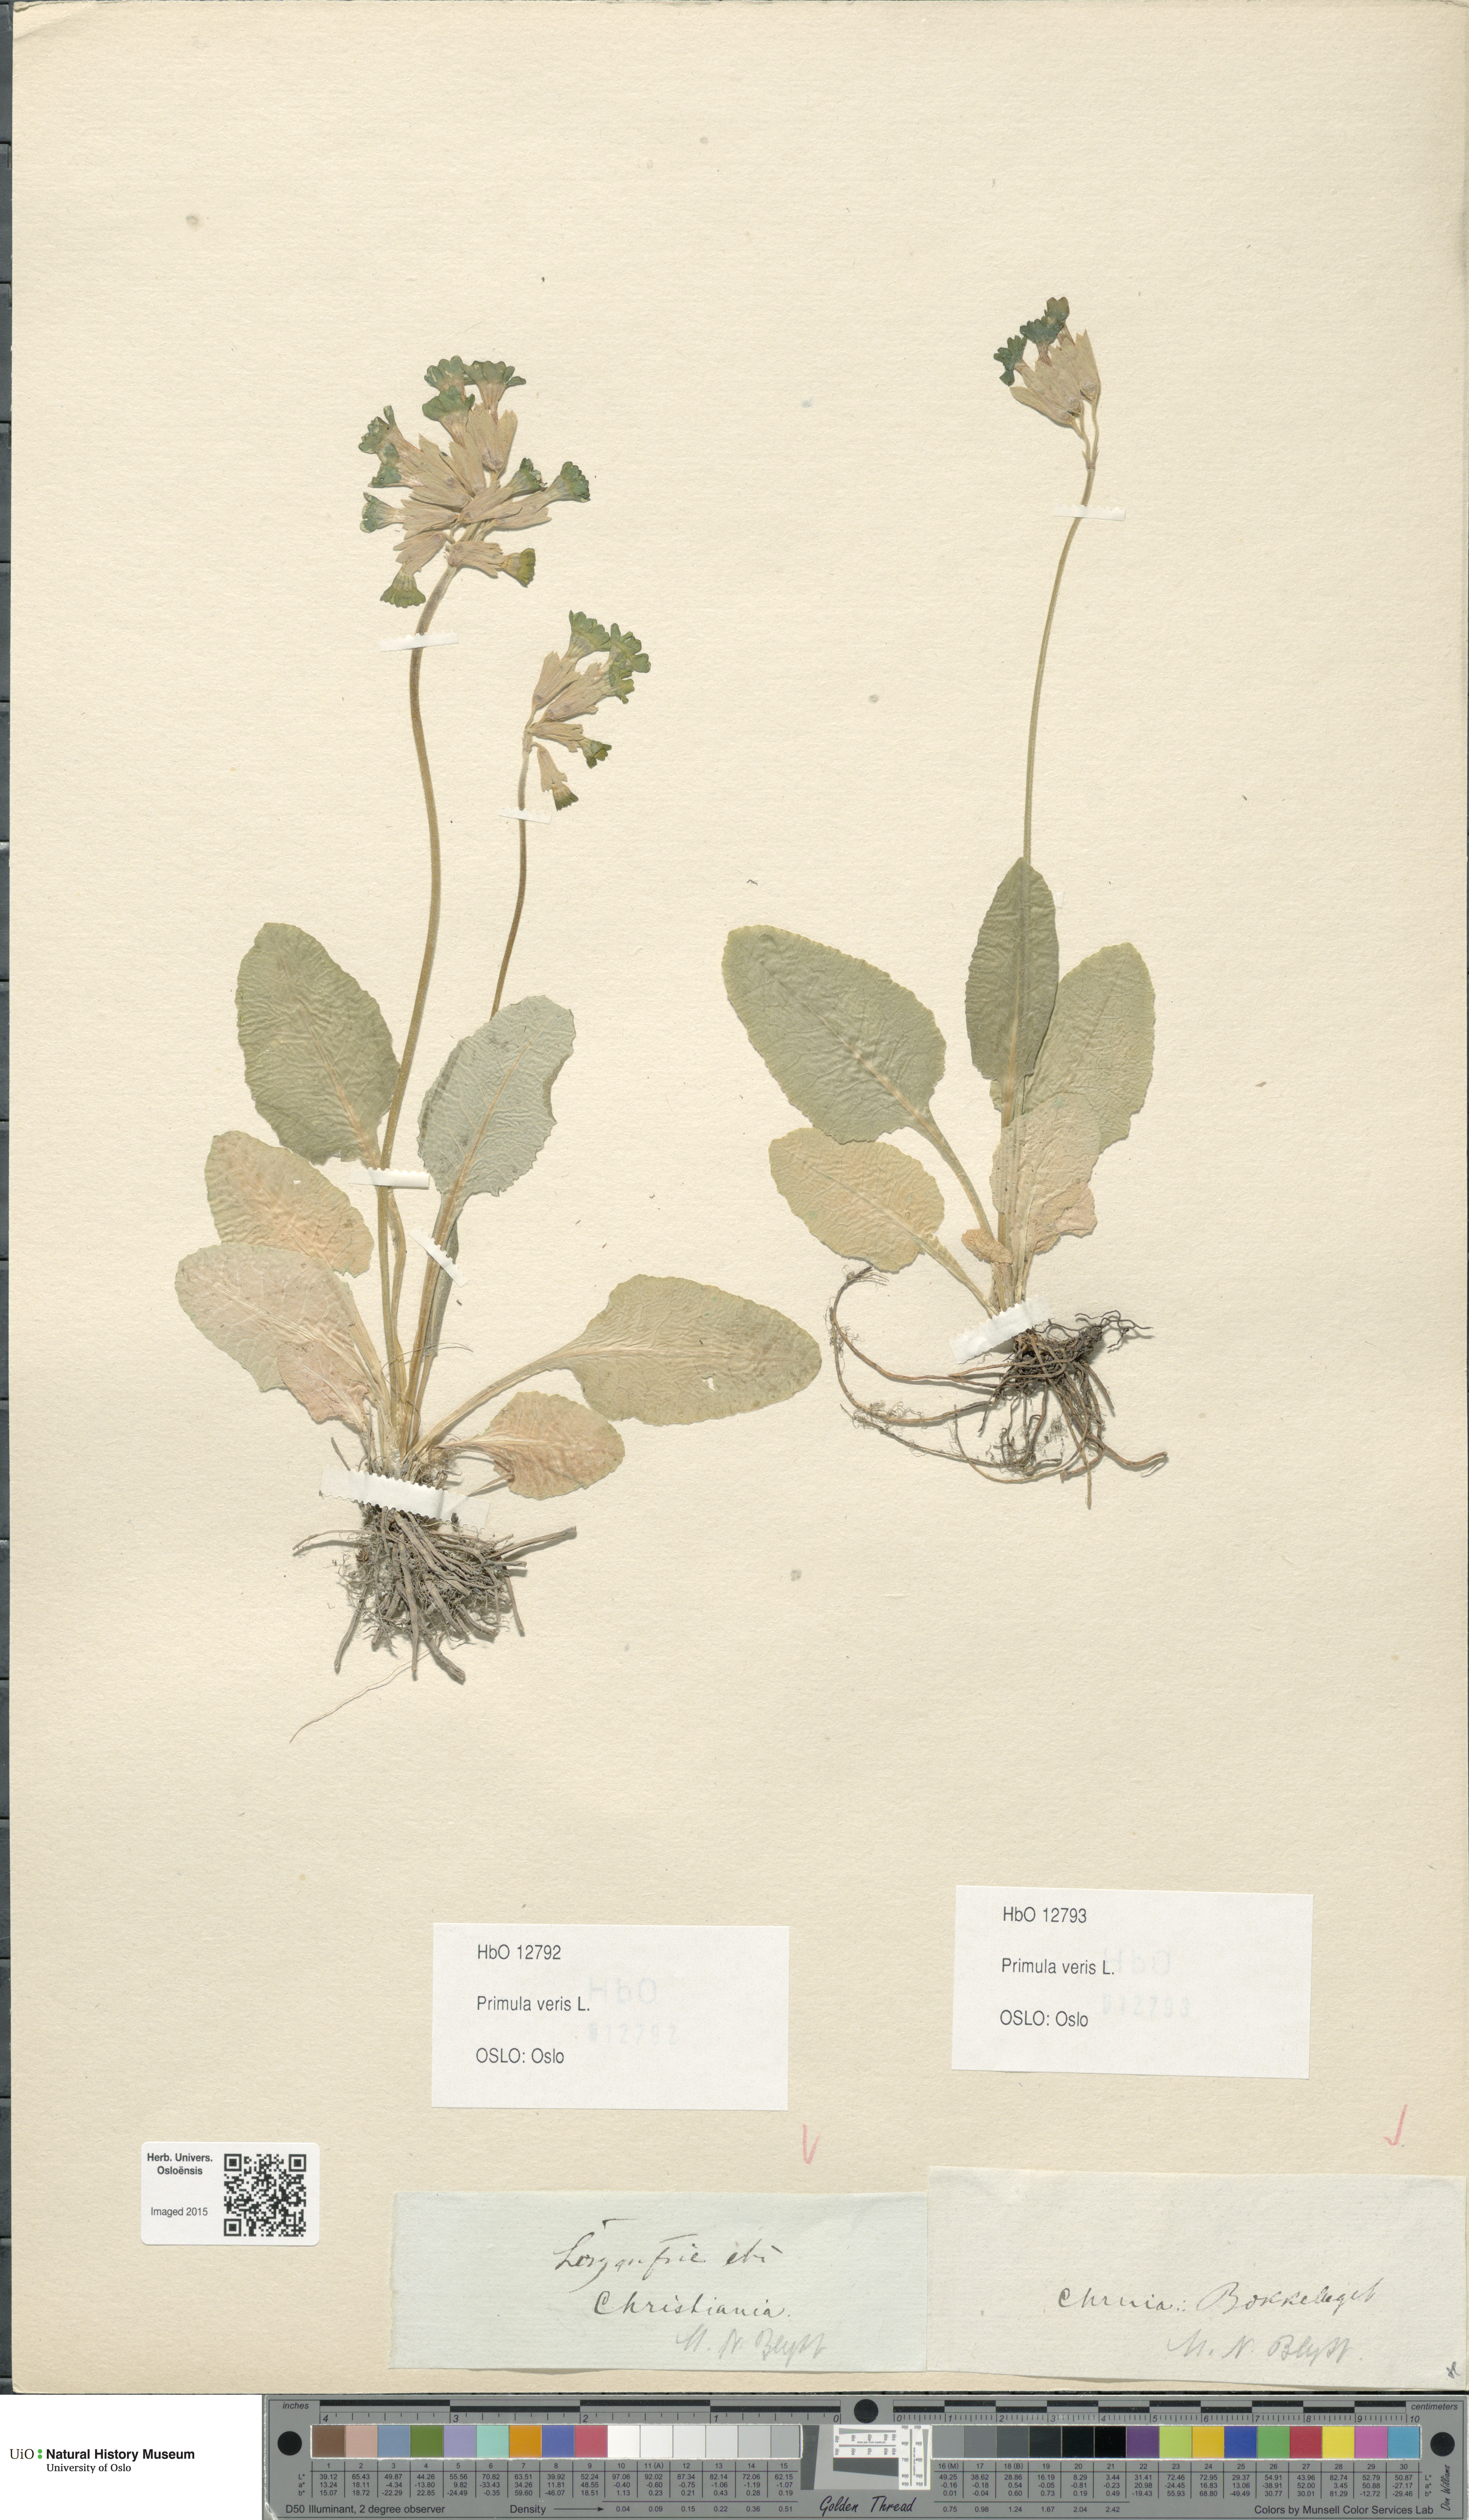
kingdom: Plantae
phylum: Tracheophyta
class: Magnoliopsida
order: Ericales
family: Primulaceae
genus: Primula
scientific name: Primula veris
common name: Cowslip
